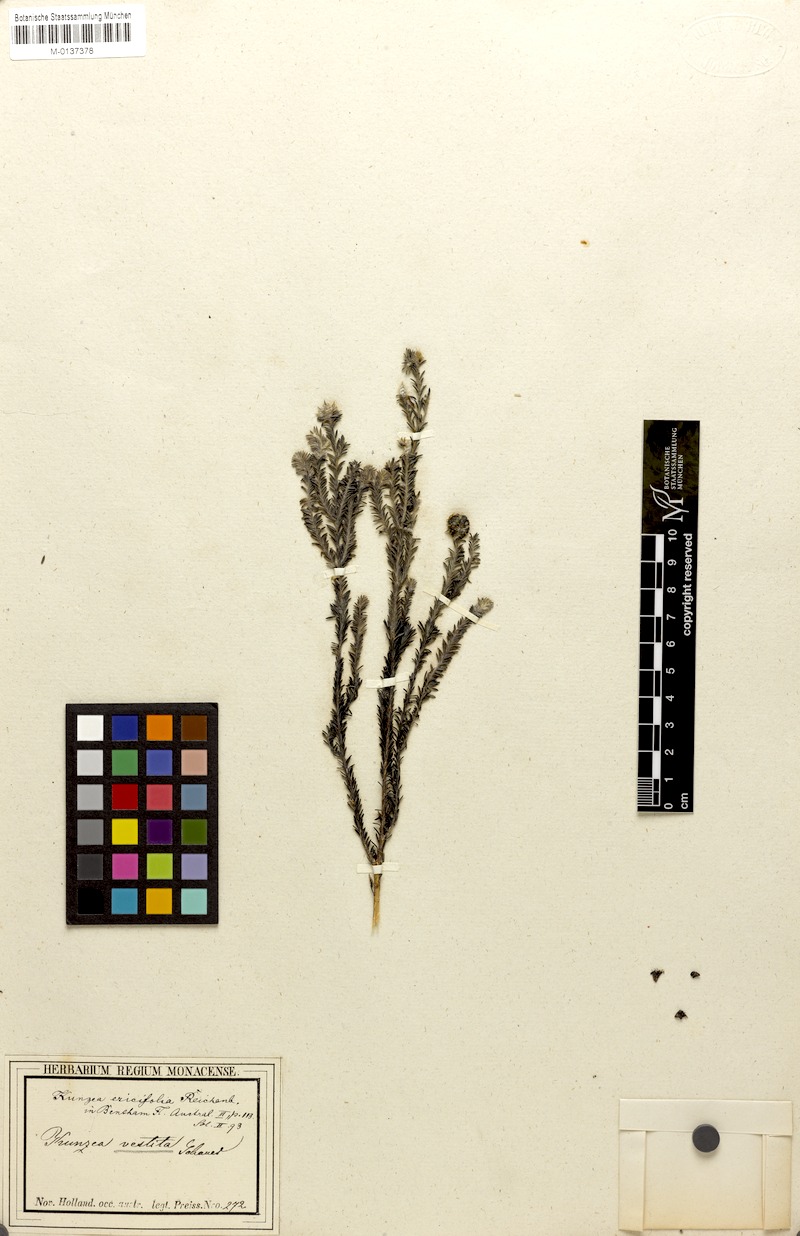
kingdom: Plantae
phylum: Tracheophyta
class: Magnoliopsida
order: Myrtales
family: Myrtaceae
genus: Kunzea
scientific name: Kunzea ericifolia
